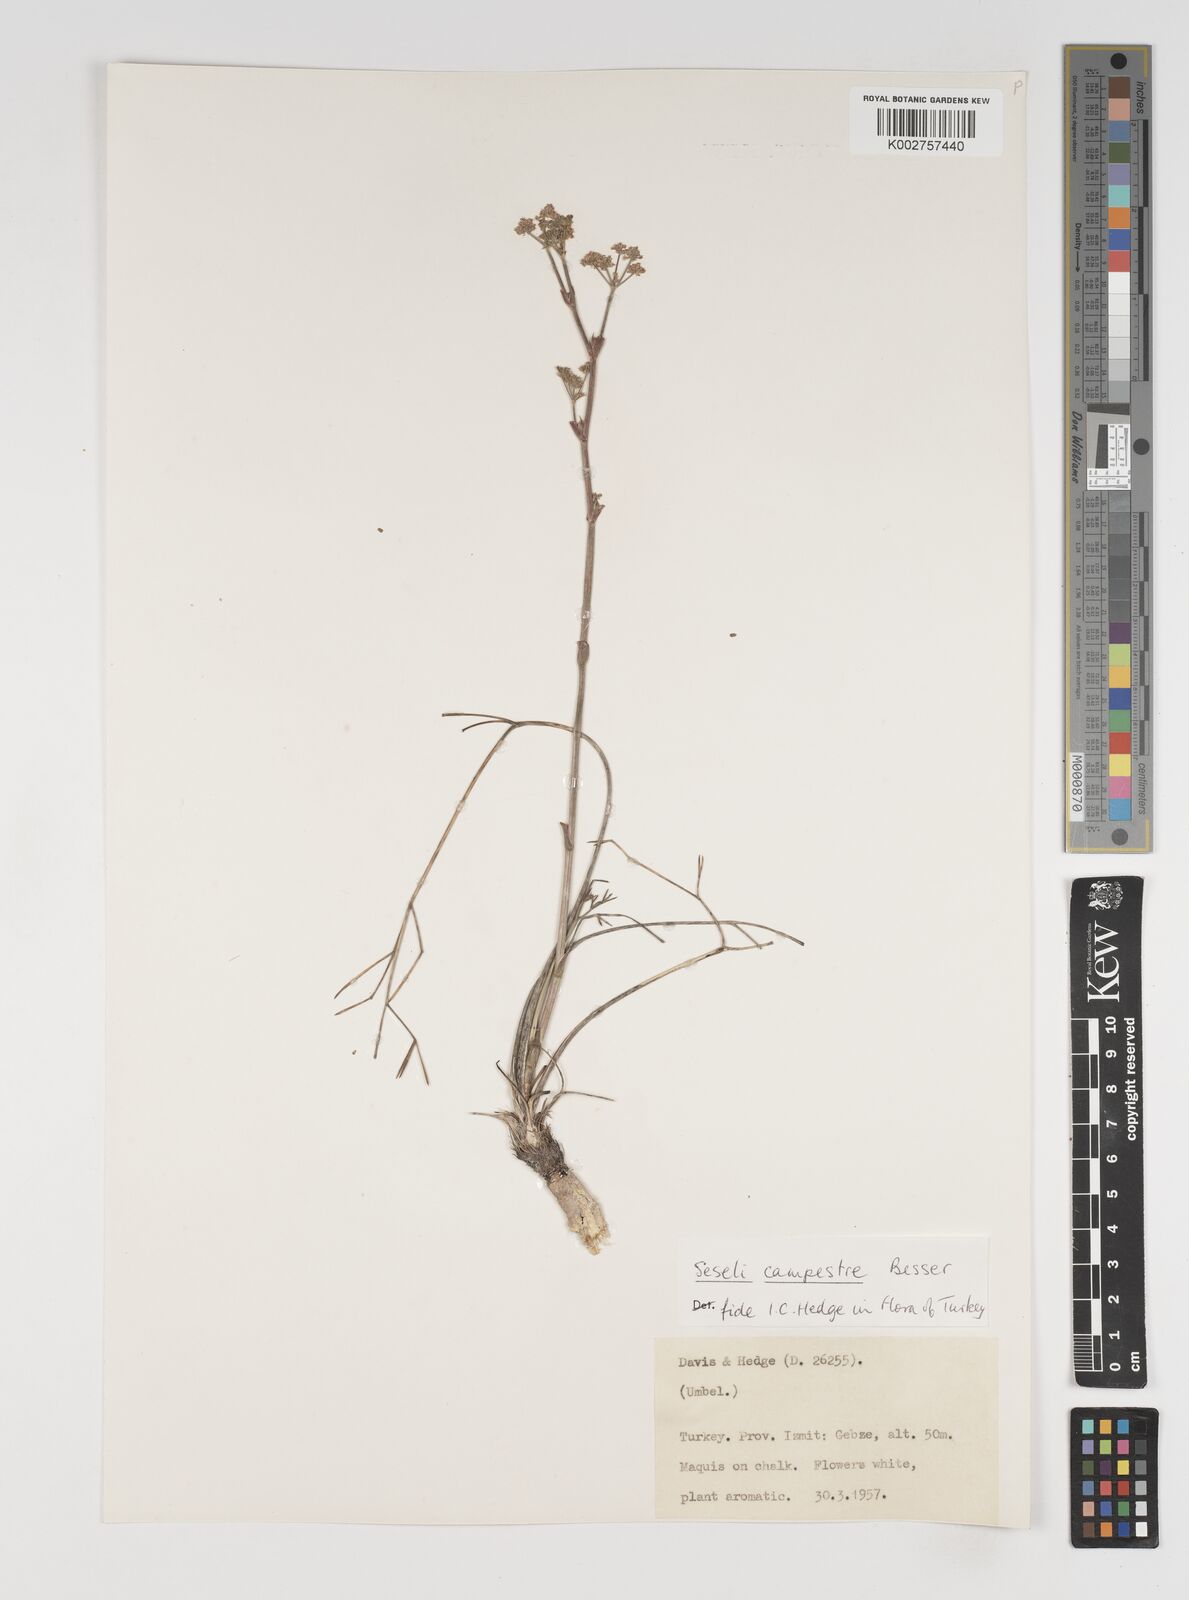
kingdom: Plantae
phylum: Tracheophyta
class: Magnoliopsida
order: Apiales
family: Apiaceae
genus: Seseli
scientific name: Seseli campestre
